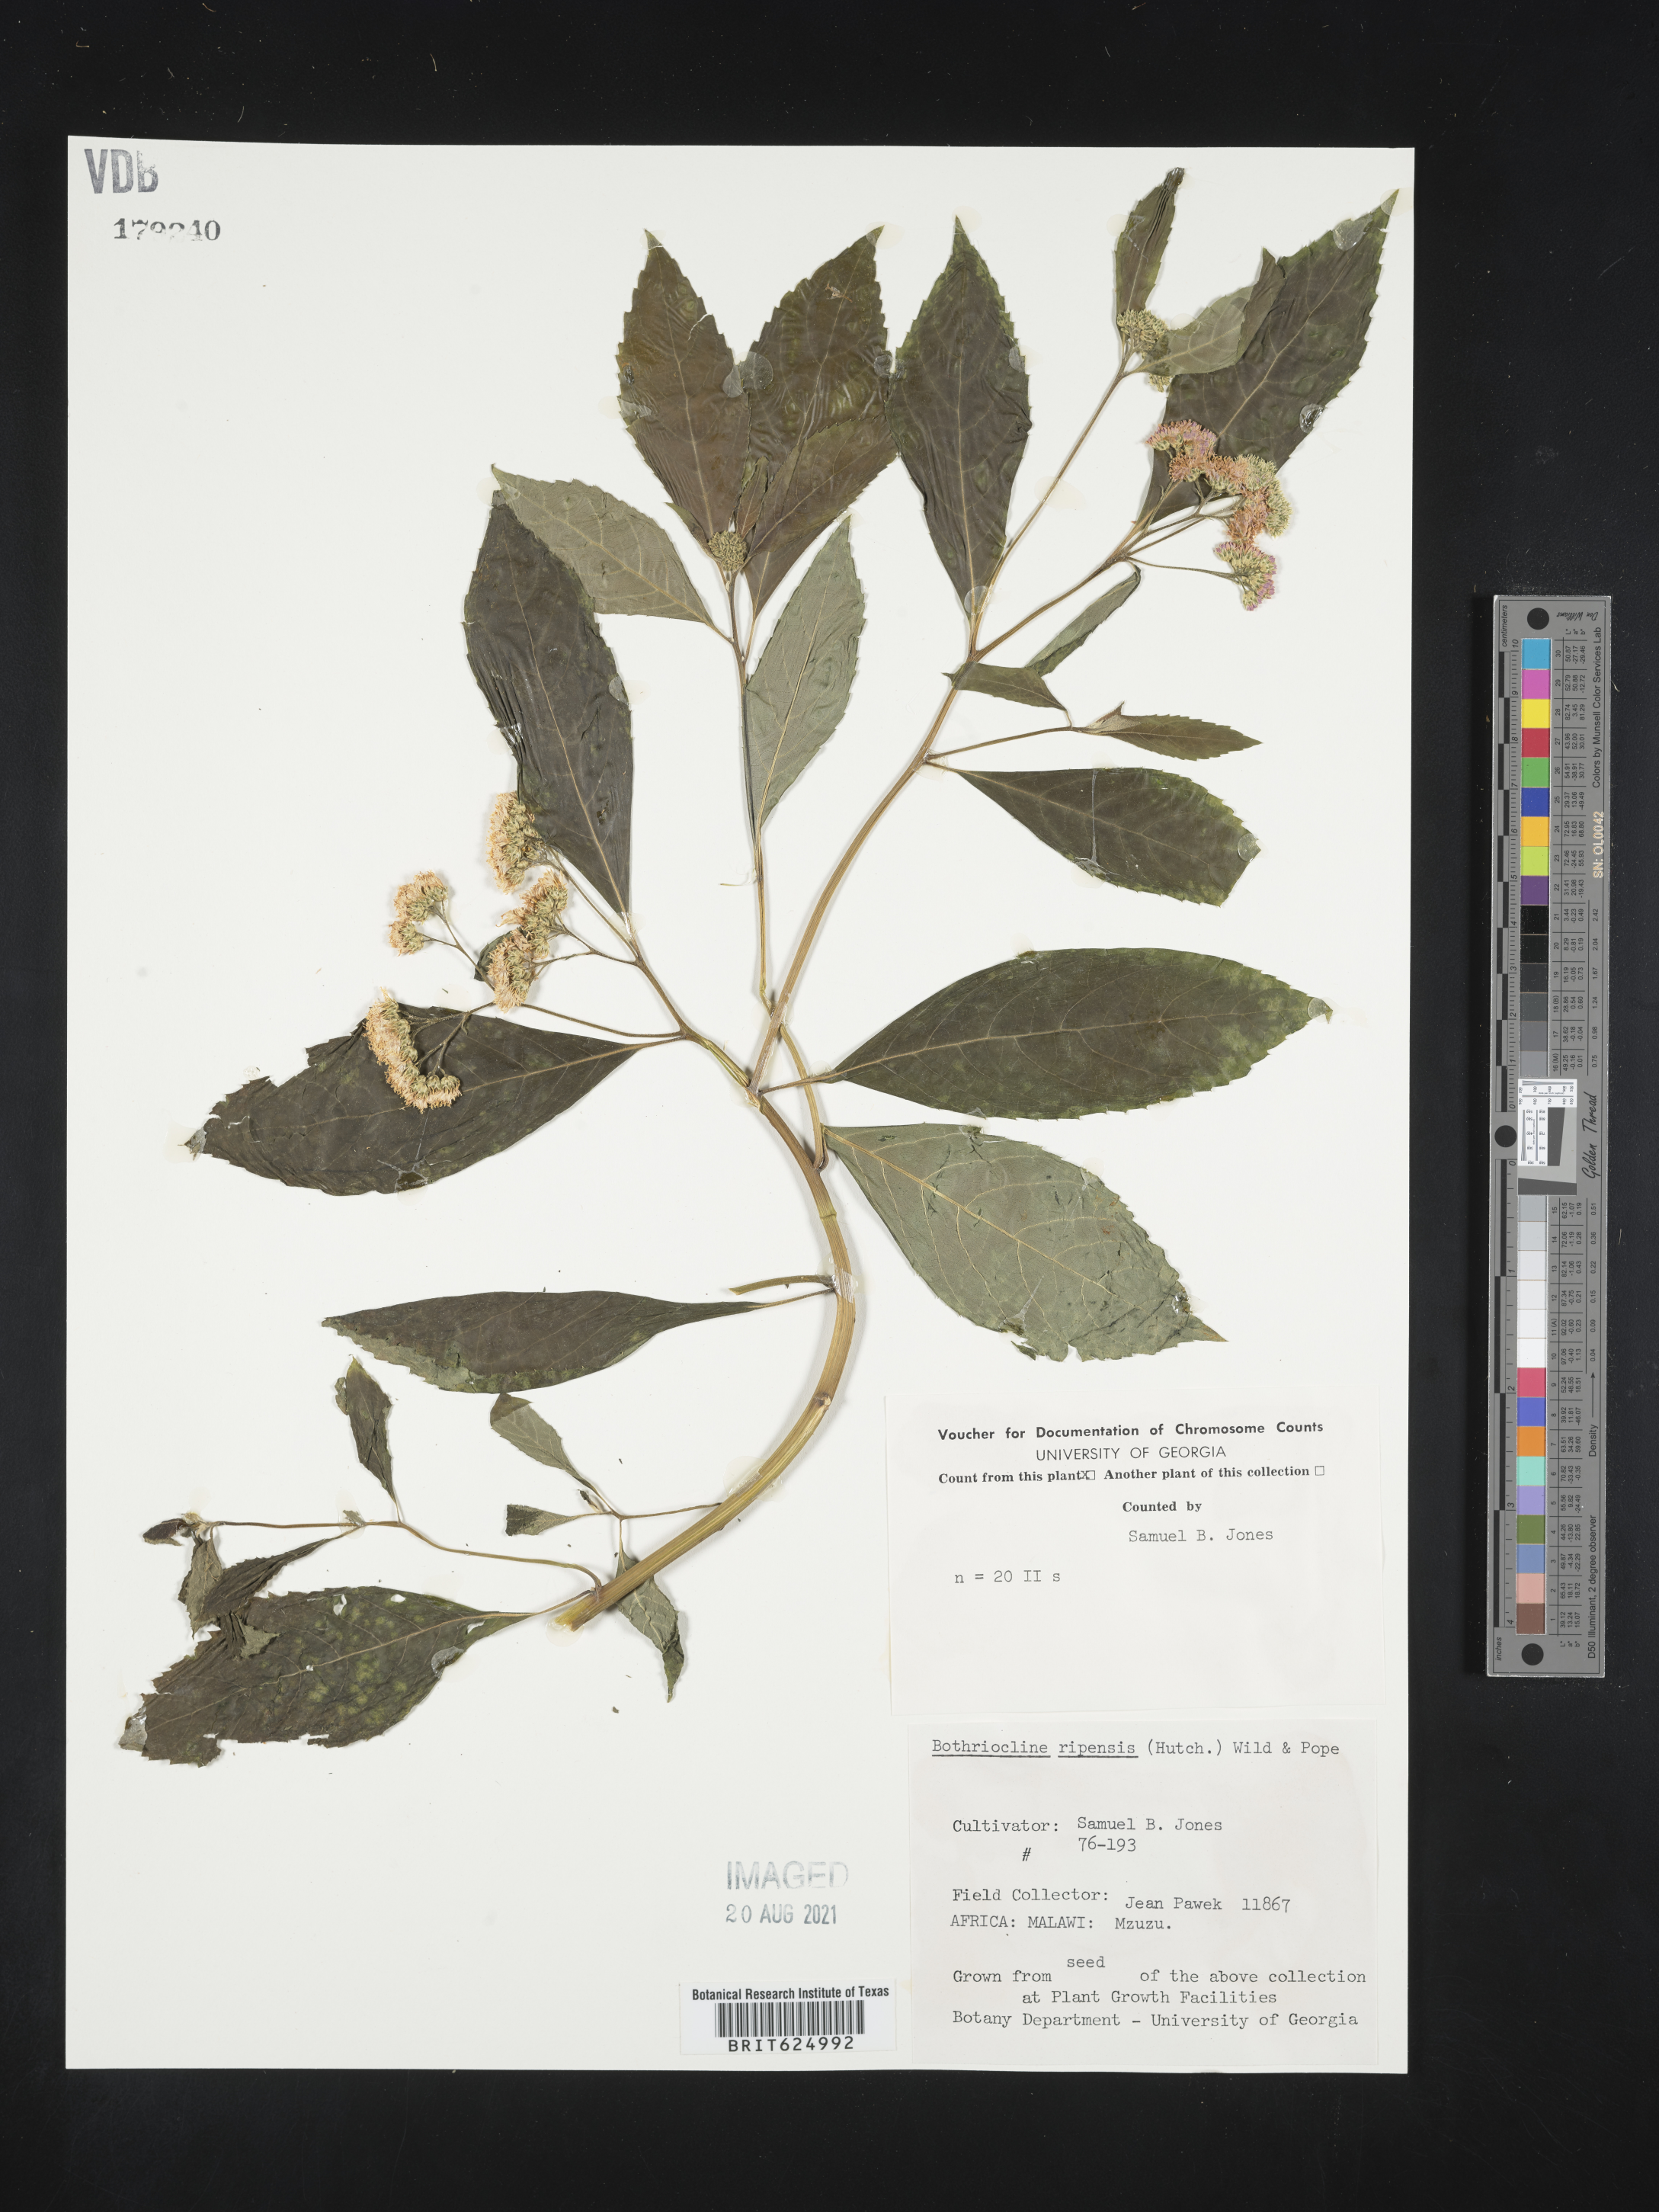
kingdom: Plantae
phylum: Tracheophyta
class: Magnoliopsida
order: Asterales
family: Asteraceae
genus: Bothriocline
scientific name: Bothriocline ripensis
